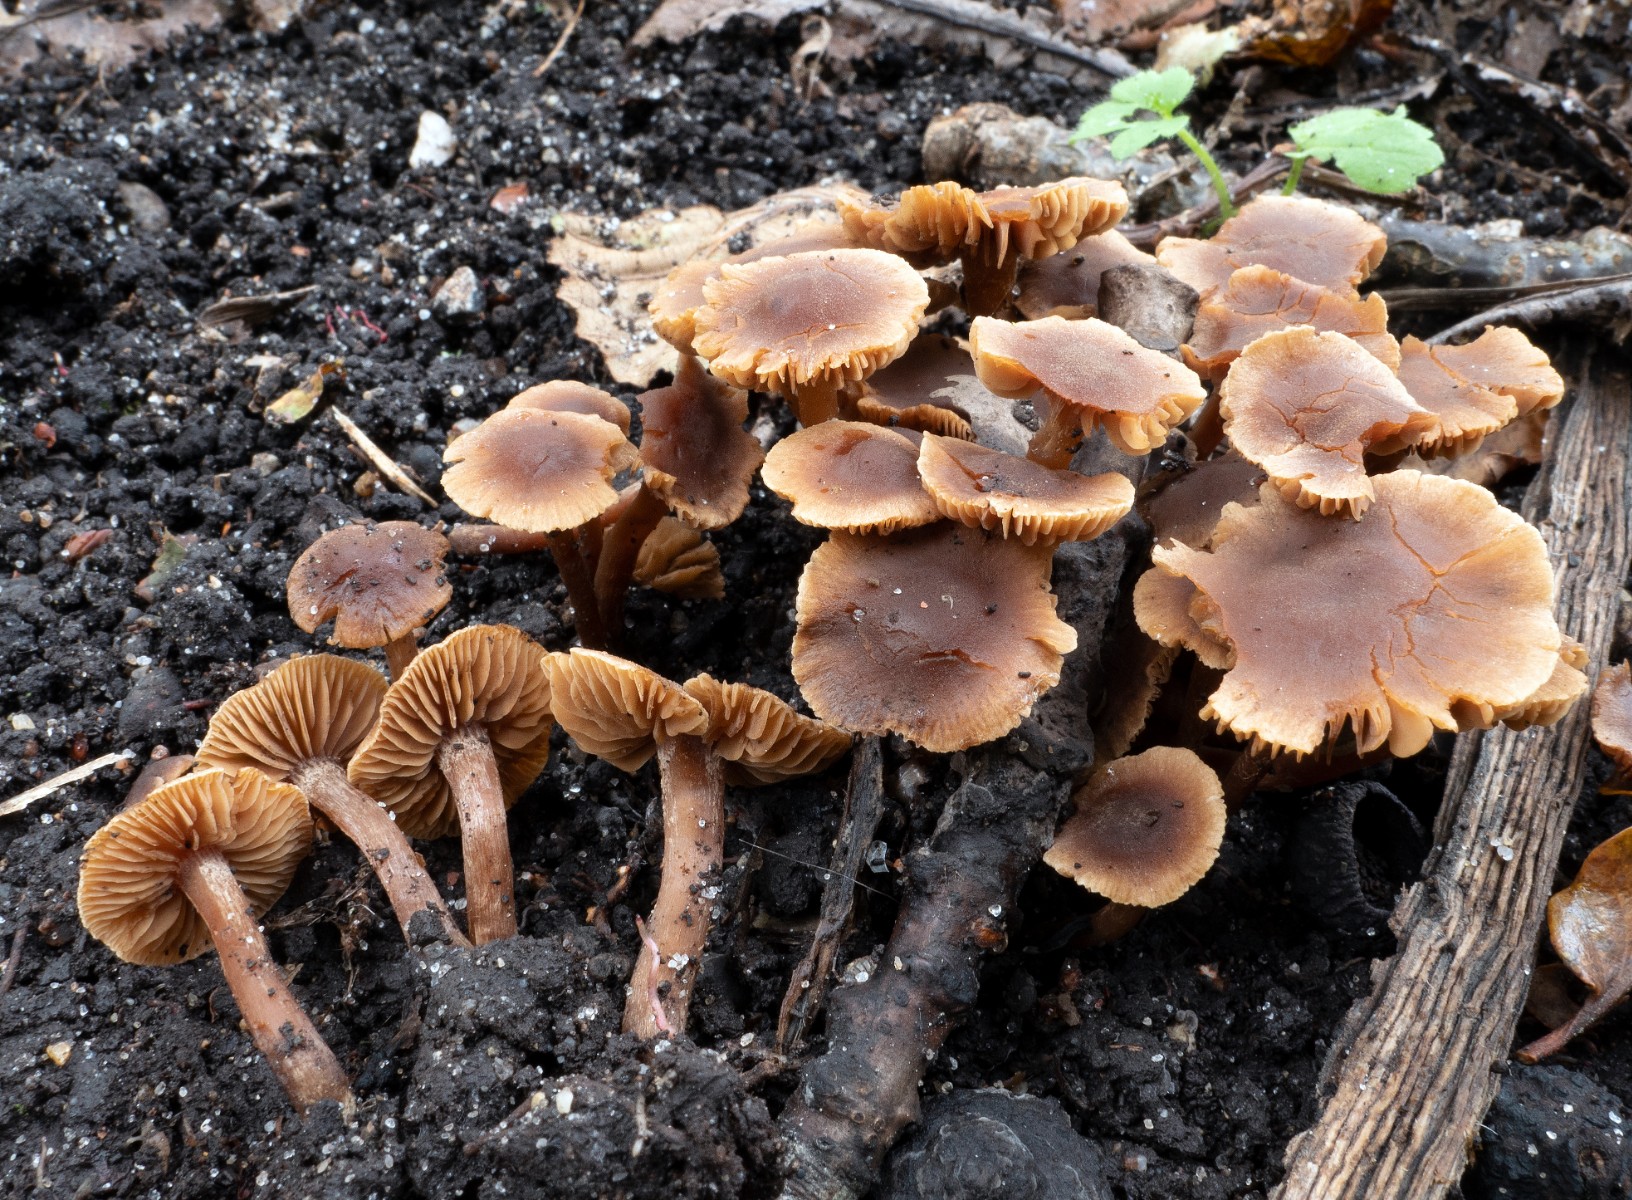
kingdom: Fungi
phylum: Basidiomycota
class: Agaricomycetes
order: Agaricales
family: Hymenogastraceae
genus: Naucoria
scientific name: Naucoria scolecina
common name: mørk elle-knaphat
